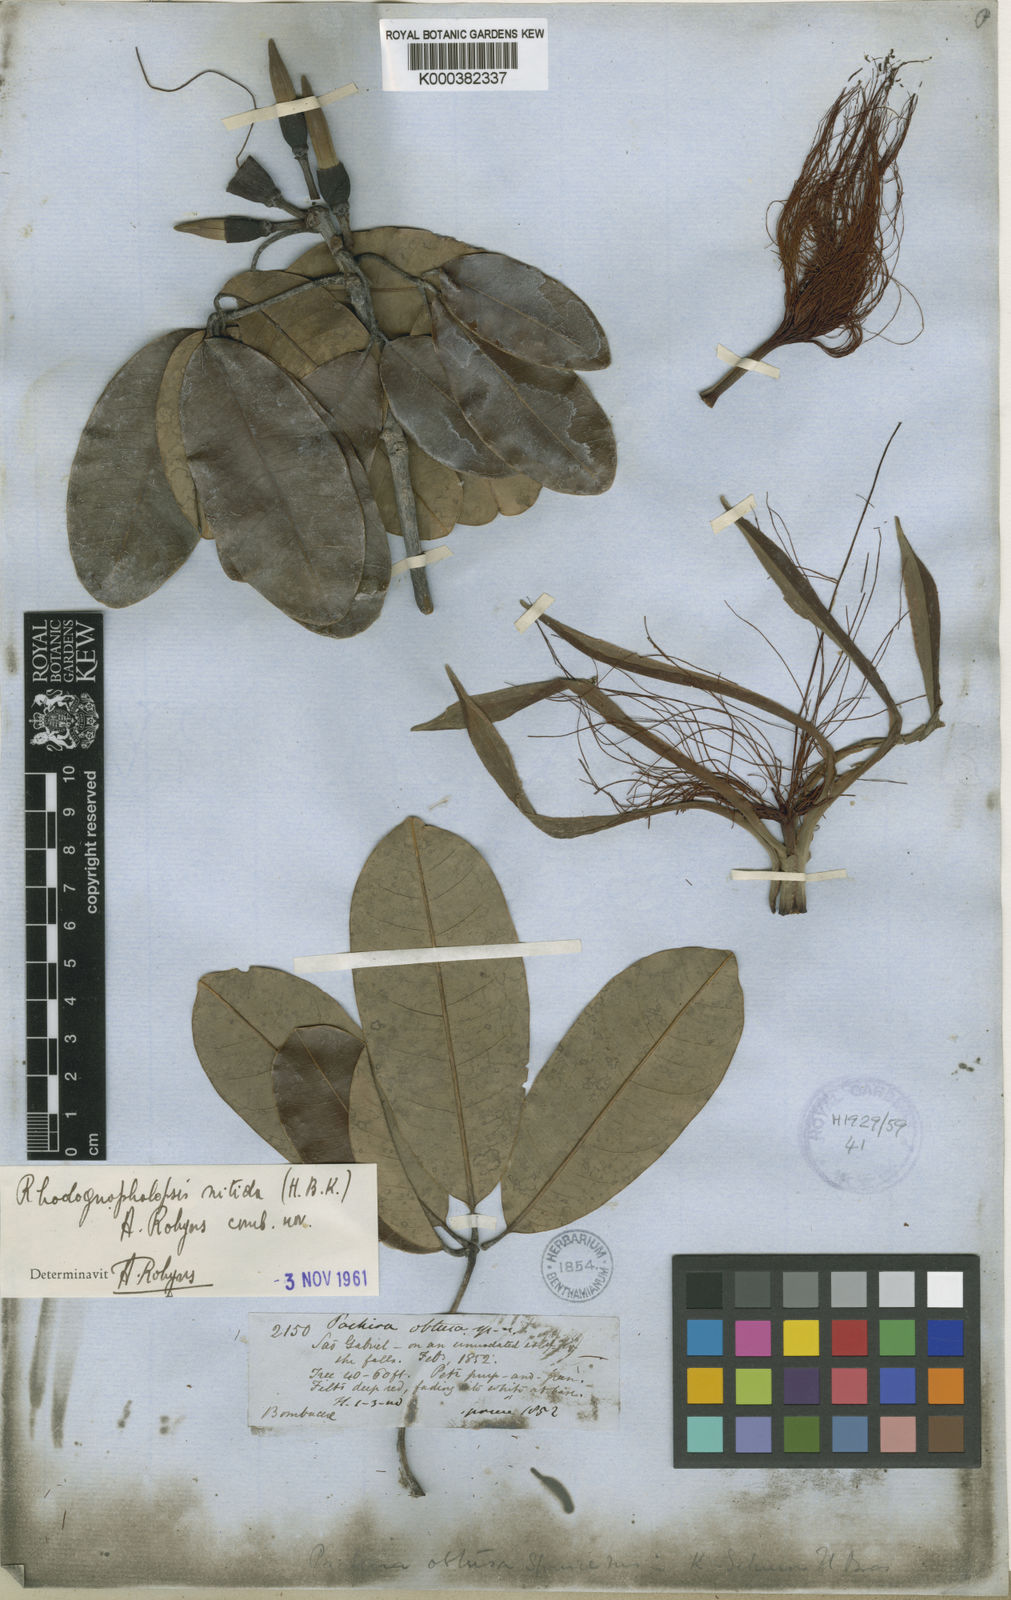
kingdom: Plantae
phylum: Tracheophyta
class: Magnoliopsida
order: Malvales
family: Malvaceae
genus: Pachira
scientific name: Pachira nitida
